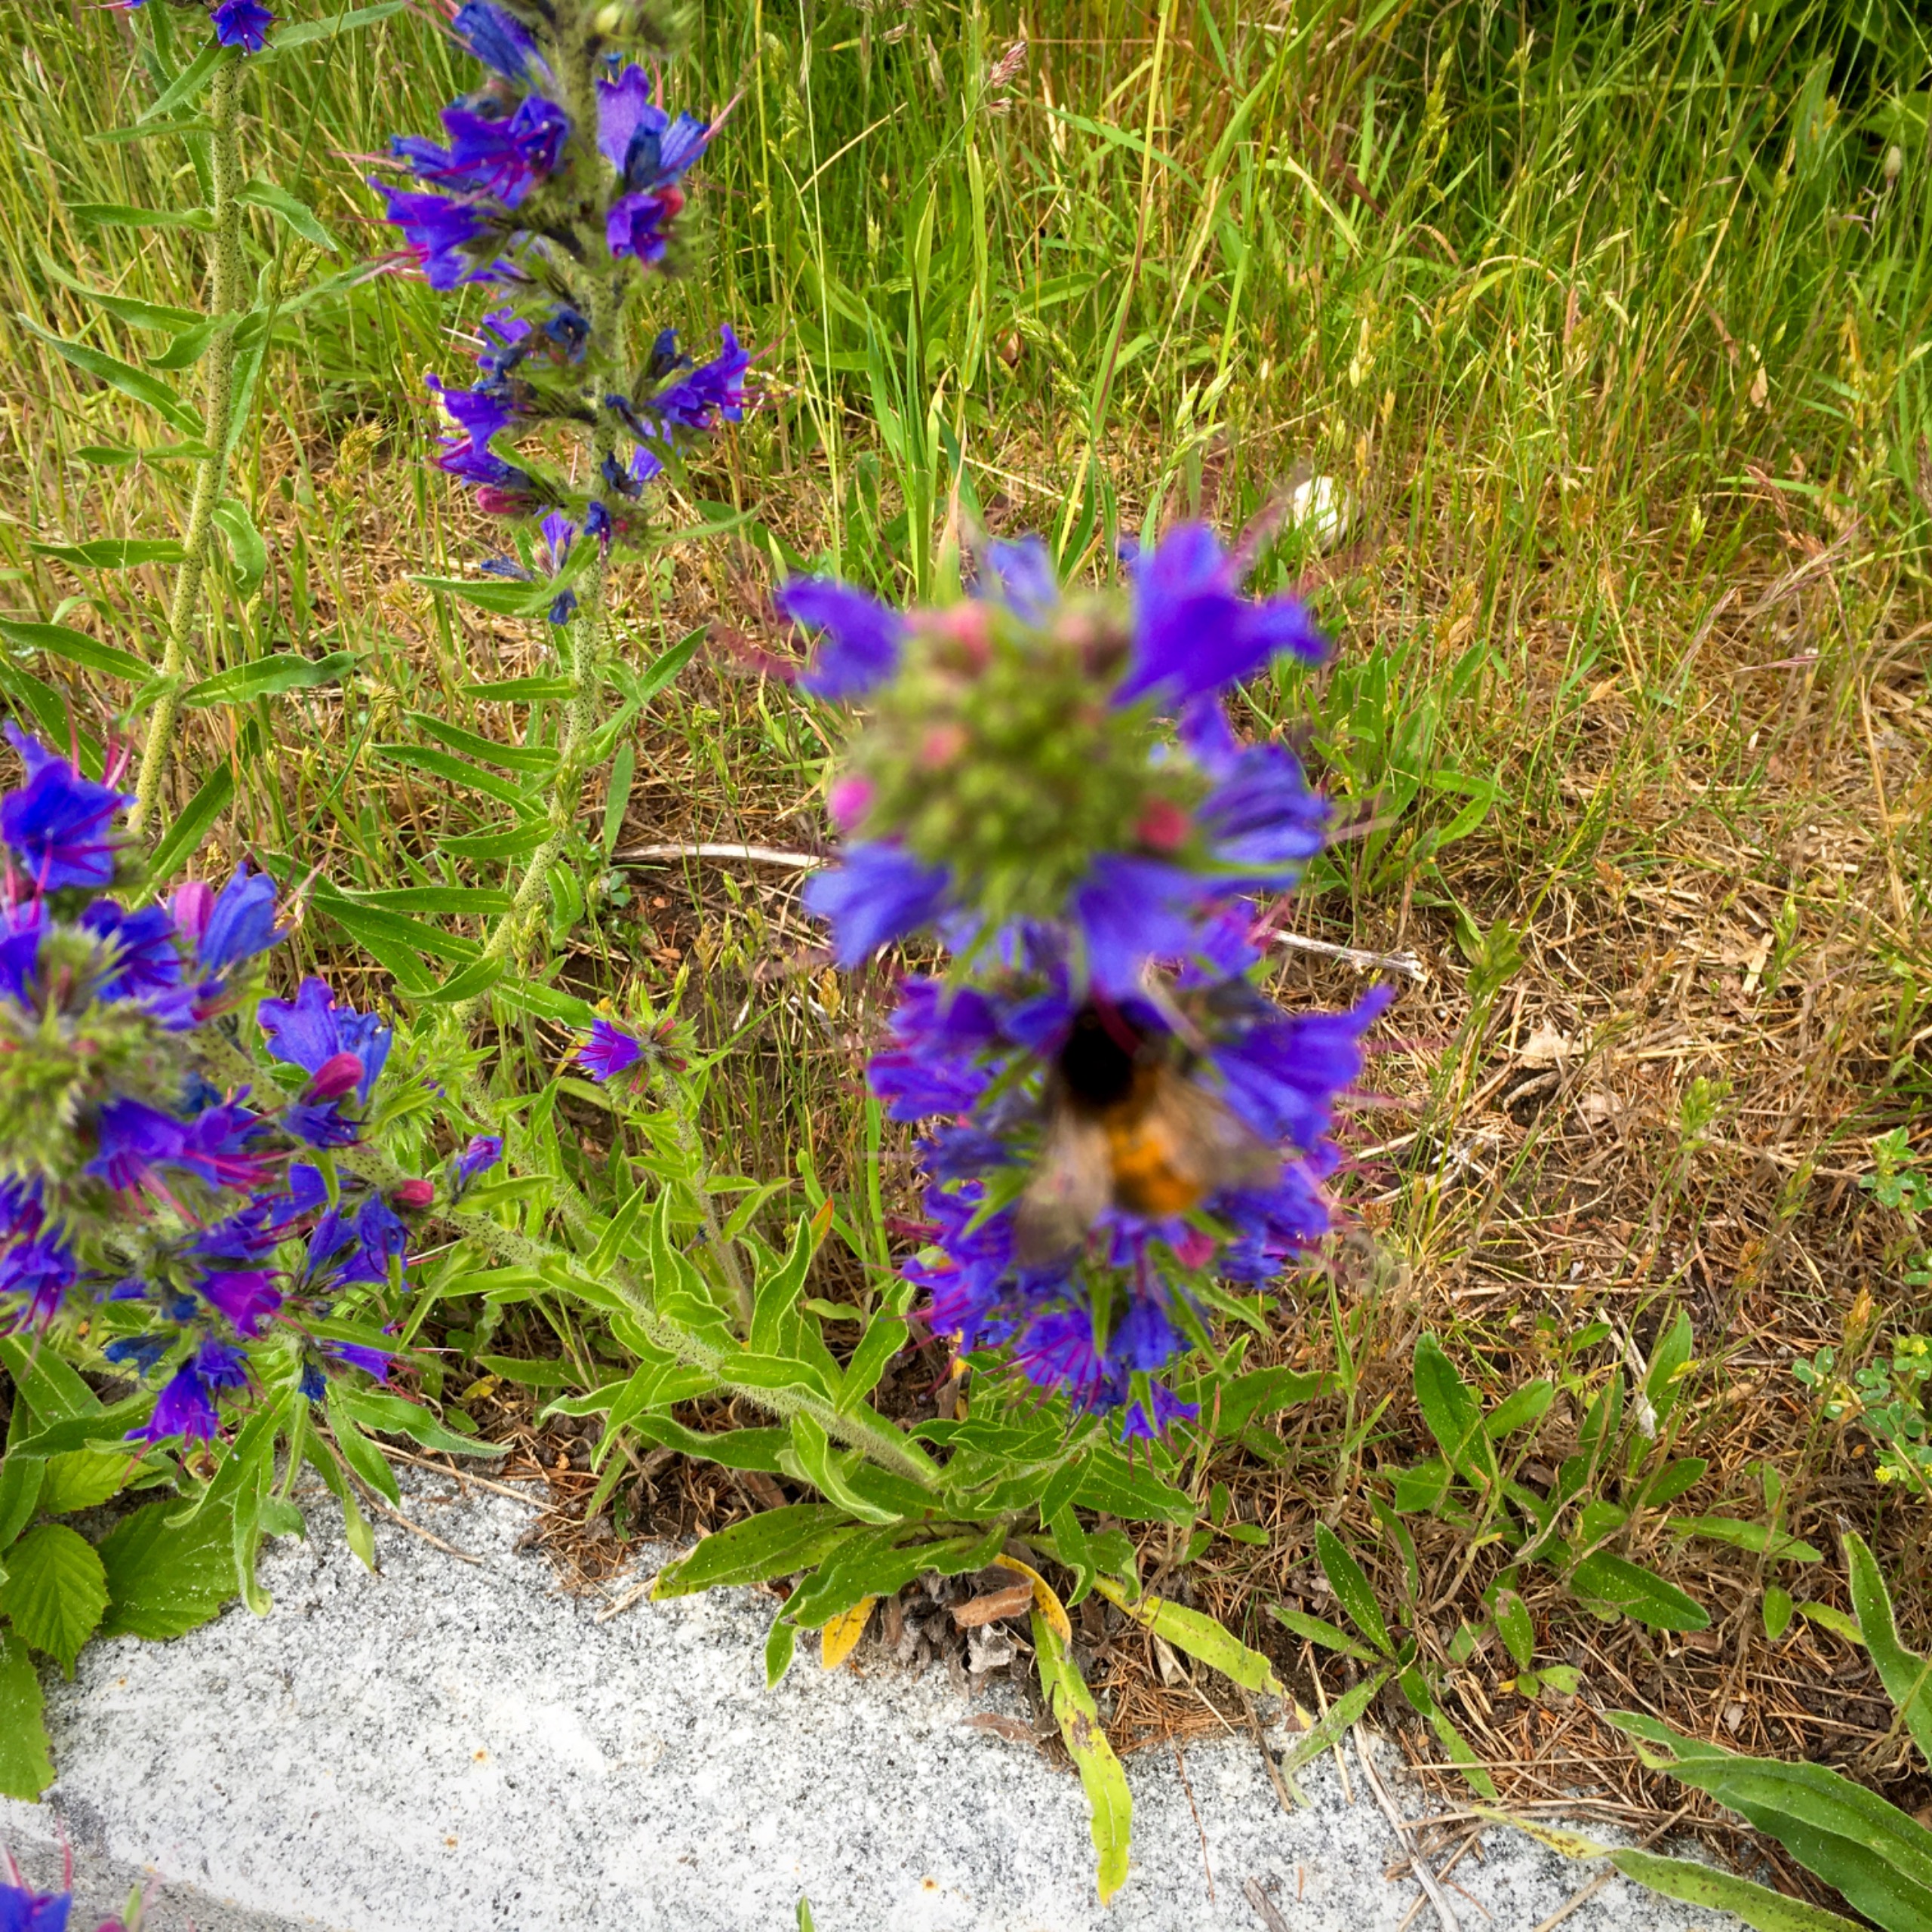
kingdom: Plantae
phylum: Tracheophyta
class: Magnoliopsida
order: Boraginales
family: Boraginaceae
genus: Echium
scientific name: Echium vulgare
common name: Slangehoved
